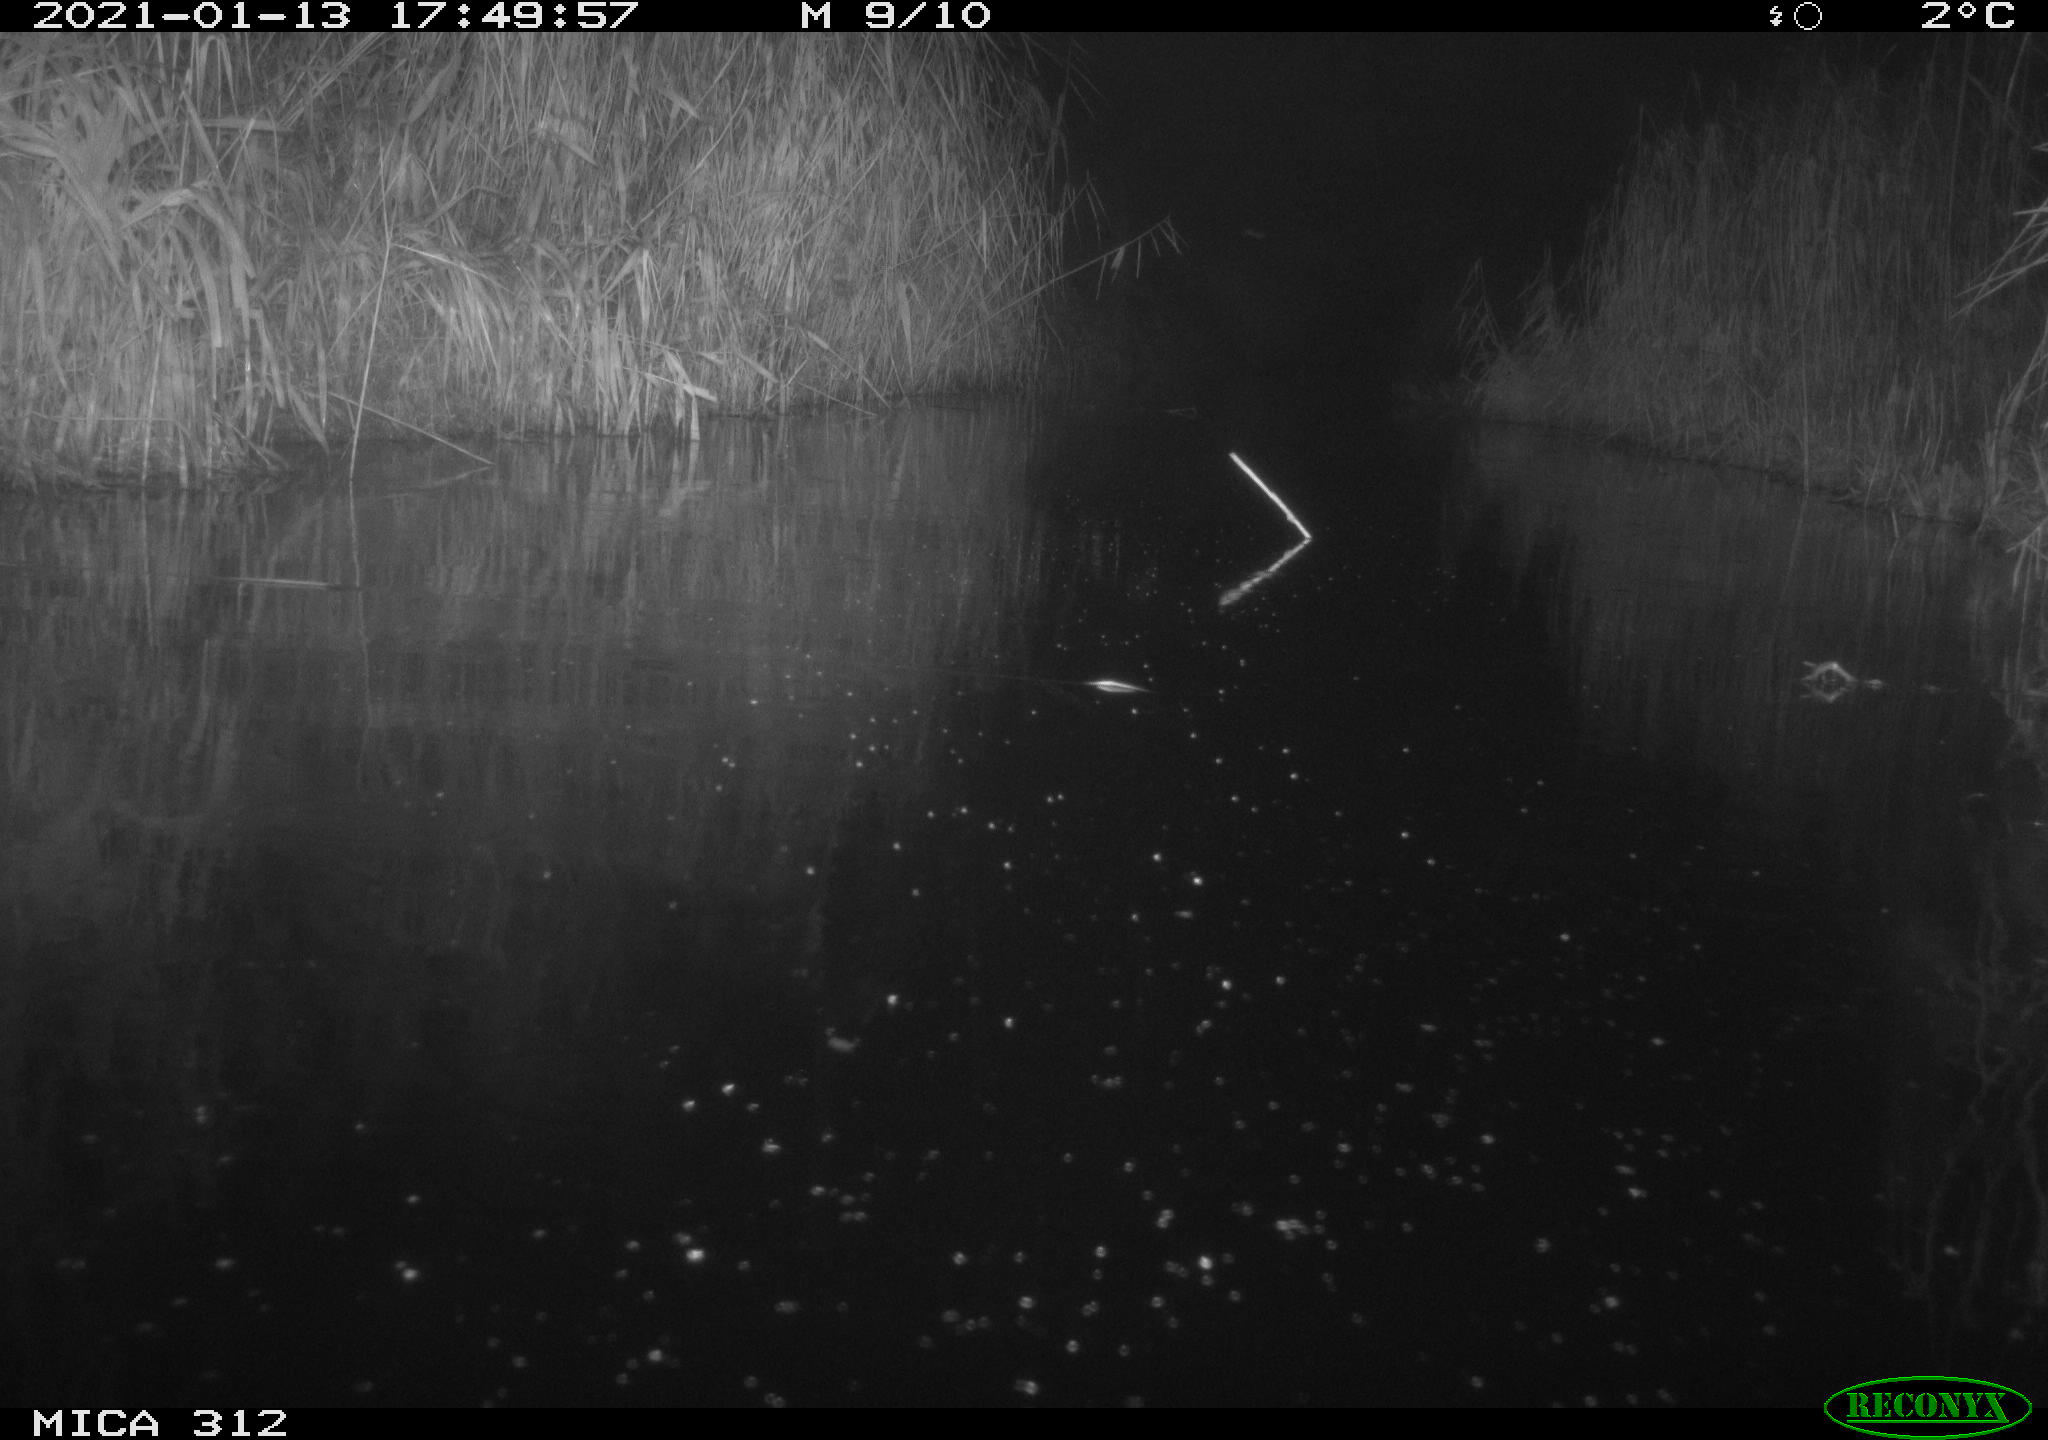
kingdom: Animalia
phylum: Chordata
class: Mammalia
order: Rodentia
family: Muridae
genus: Rattus
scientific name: Rattus norvegicus
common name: Brown rat
